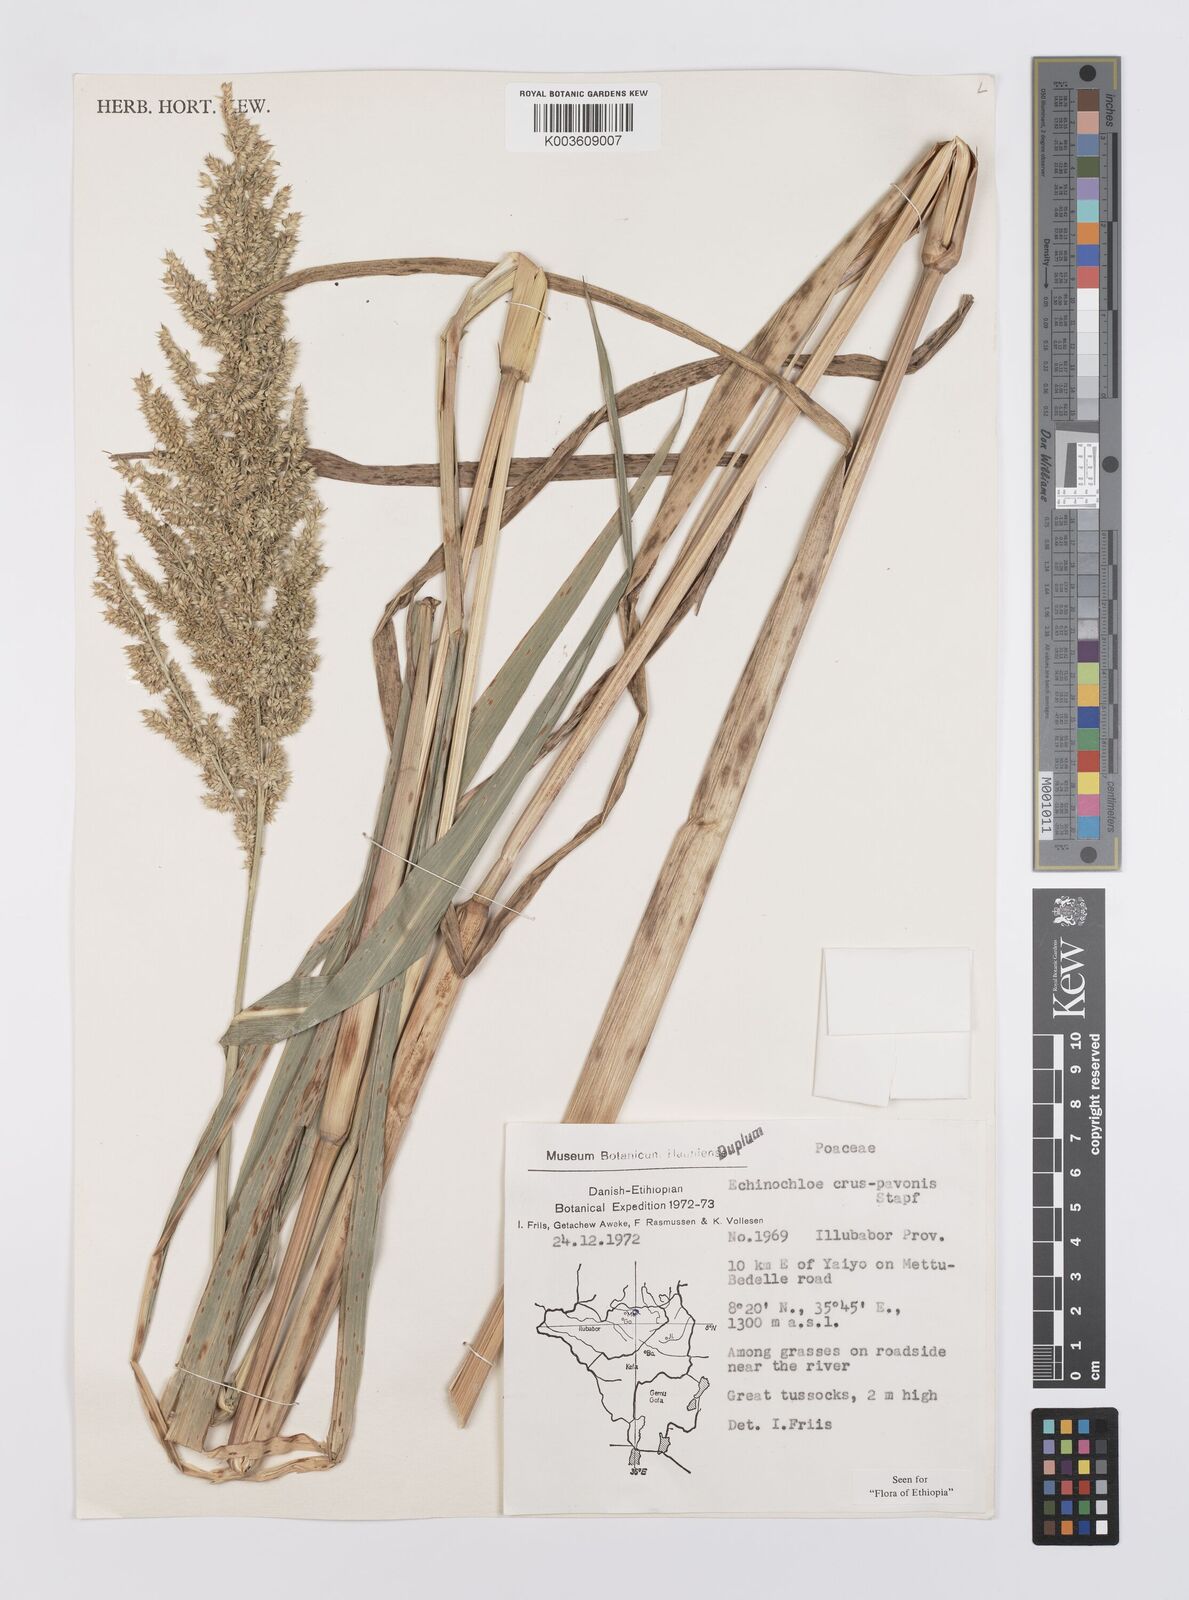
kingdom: Plantae
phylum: Tracheophyta
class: Liliopsida
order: Poales
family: Poaceae
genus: Echinochloa
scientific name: Echinochloa crus-pavonis
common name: Gulf cockspur grass
